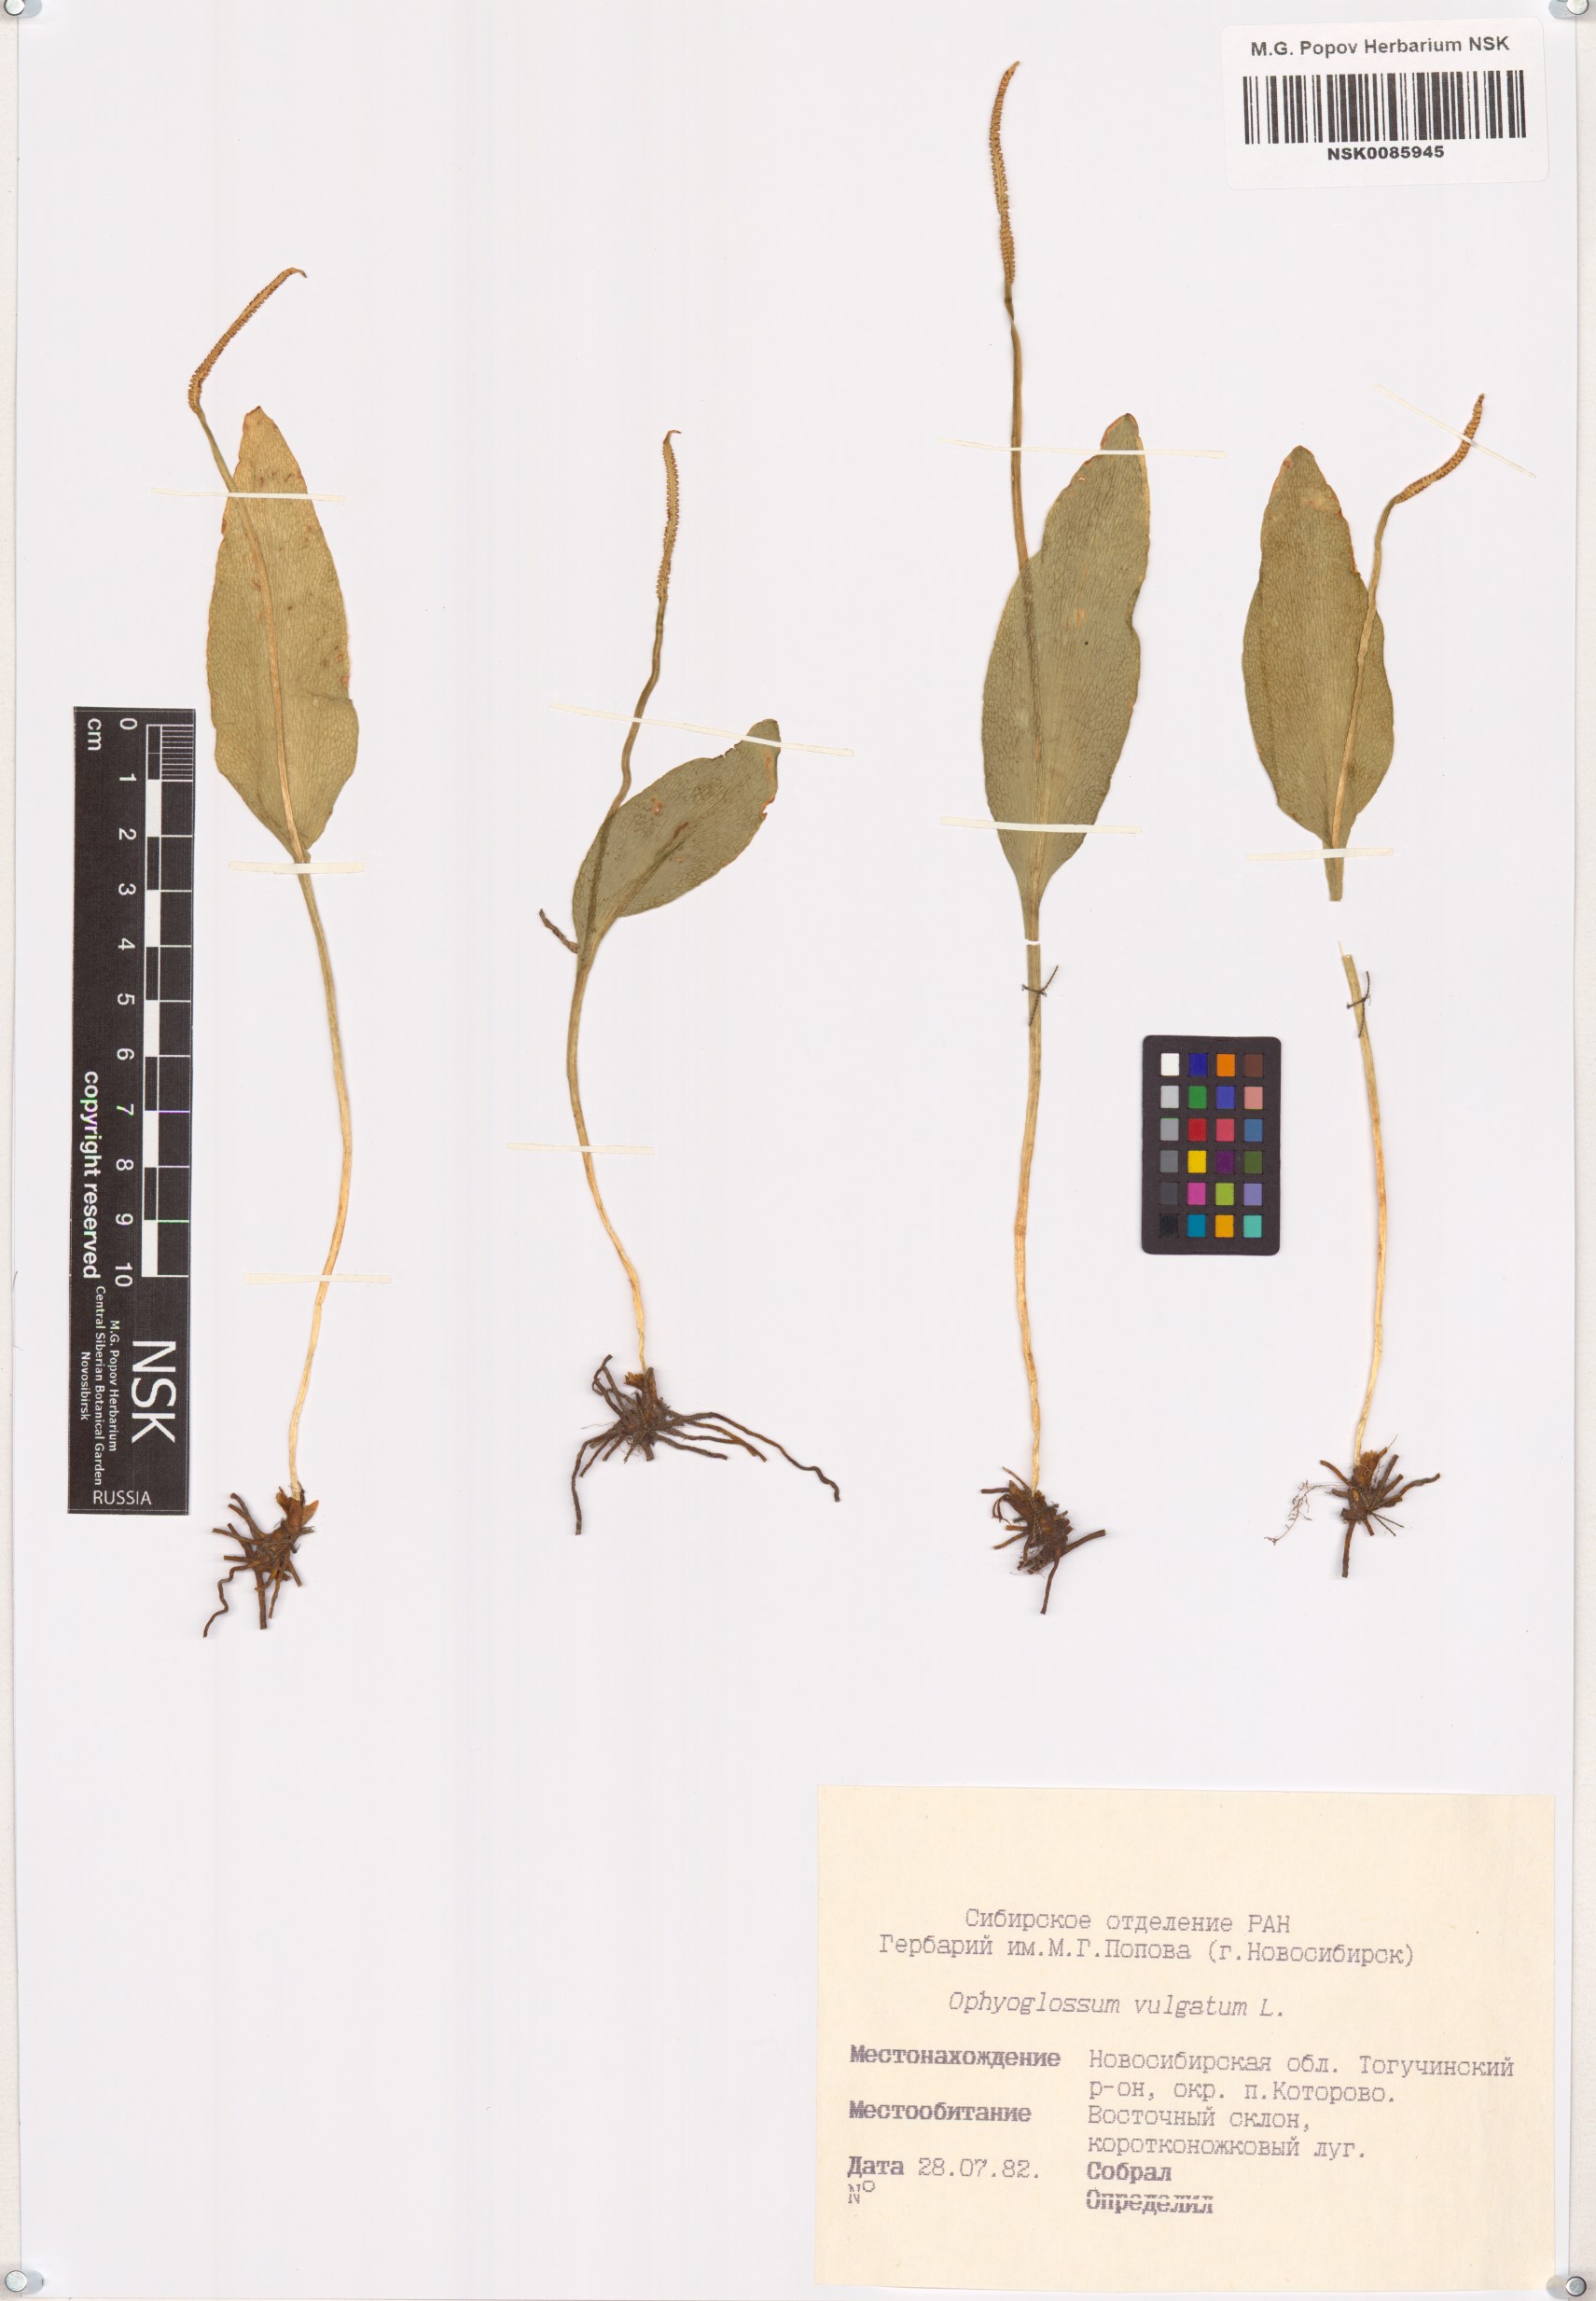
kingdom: Plantae
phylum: Tracheophyta
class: Polypodiopsida
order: Ophioglossales
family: Ophioglossaceae
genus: Ophioglossum
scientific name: Ophioglossum vulgatum
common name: Adder's-tongue
